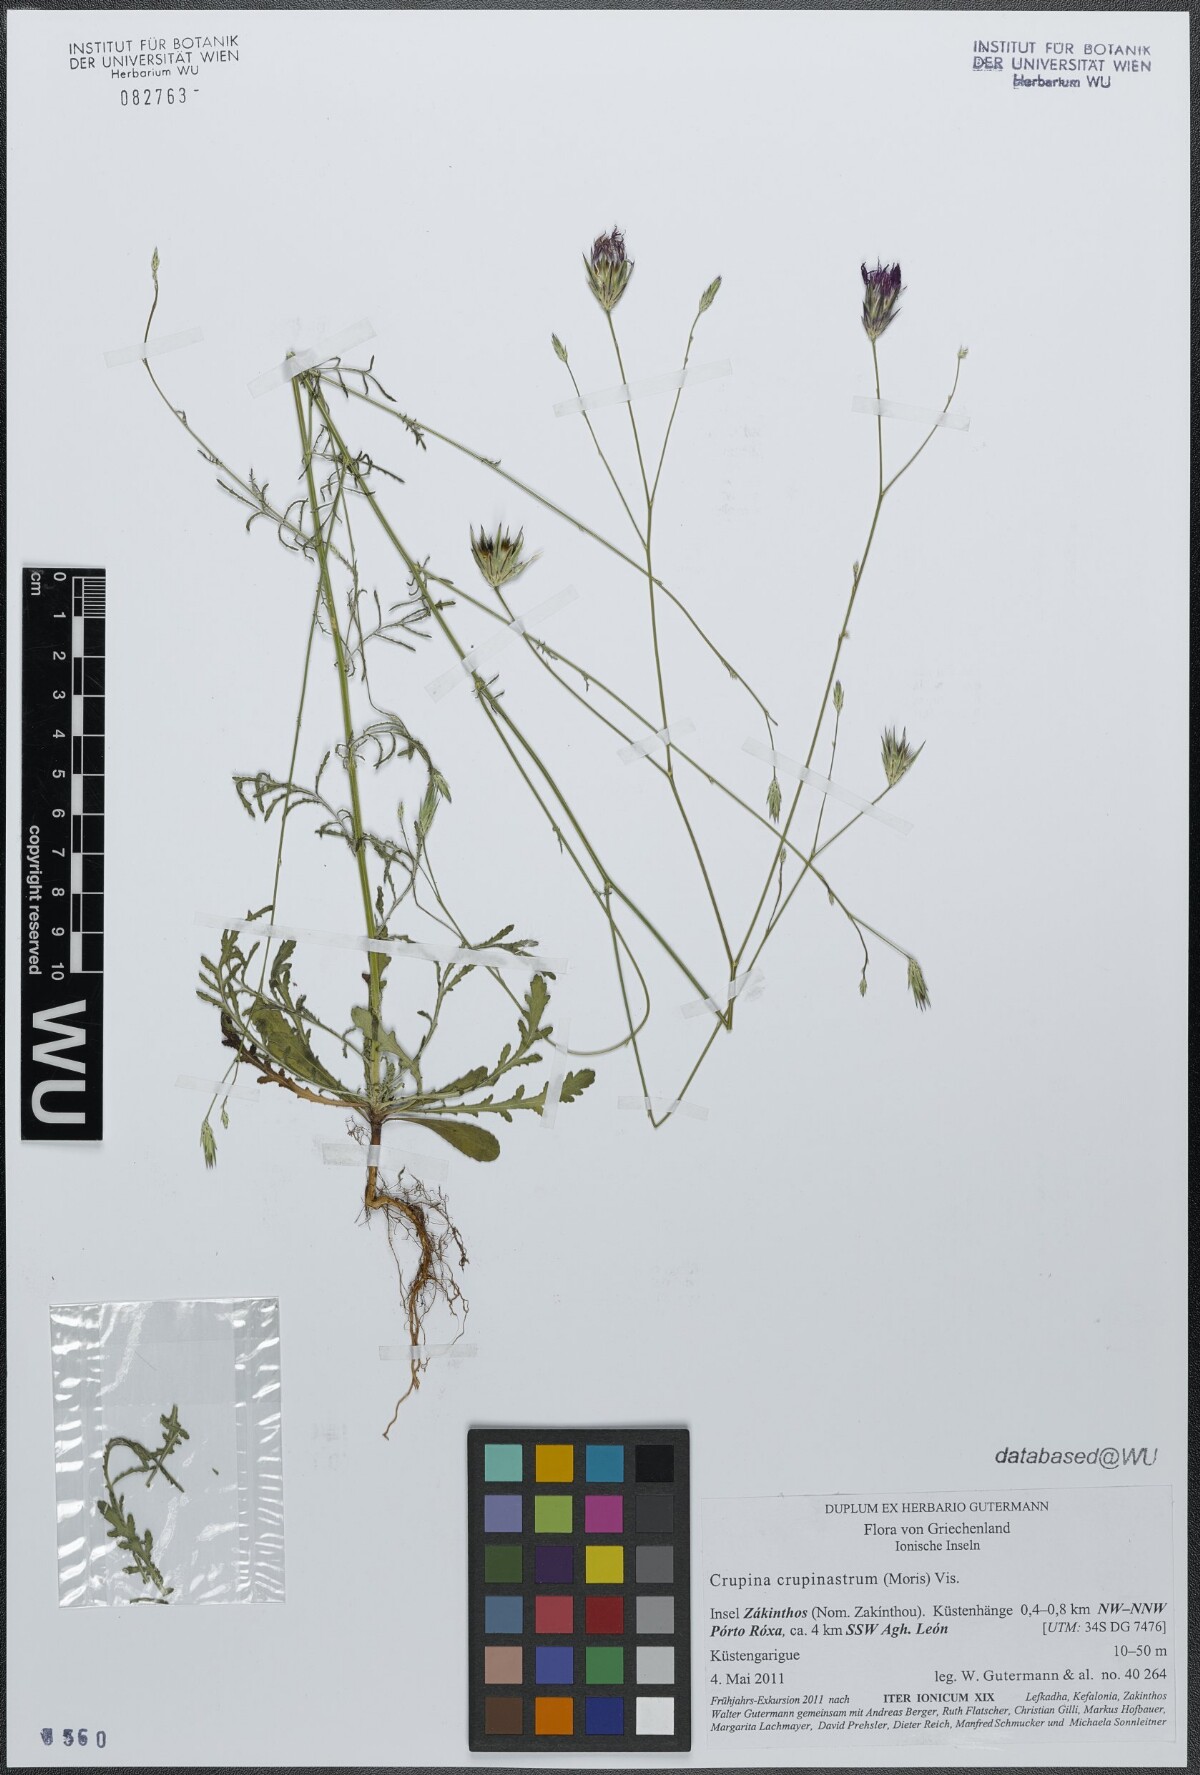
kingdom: Plantae
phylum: Tracheophyta
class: Magnoliopsida
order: Asterales
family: Asteraceae
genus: Crupina
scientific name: Crupina crupinastrum
